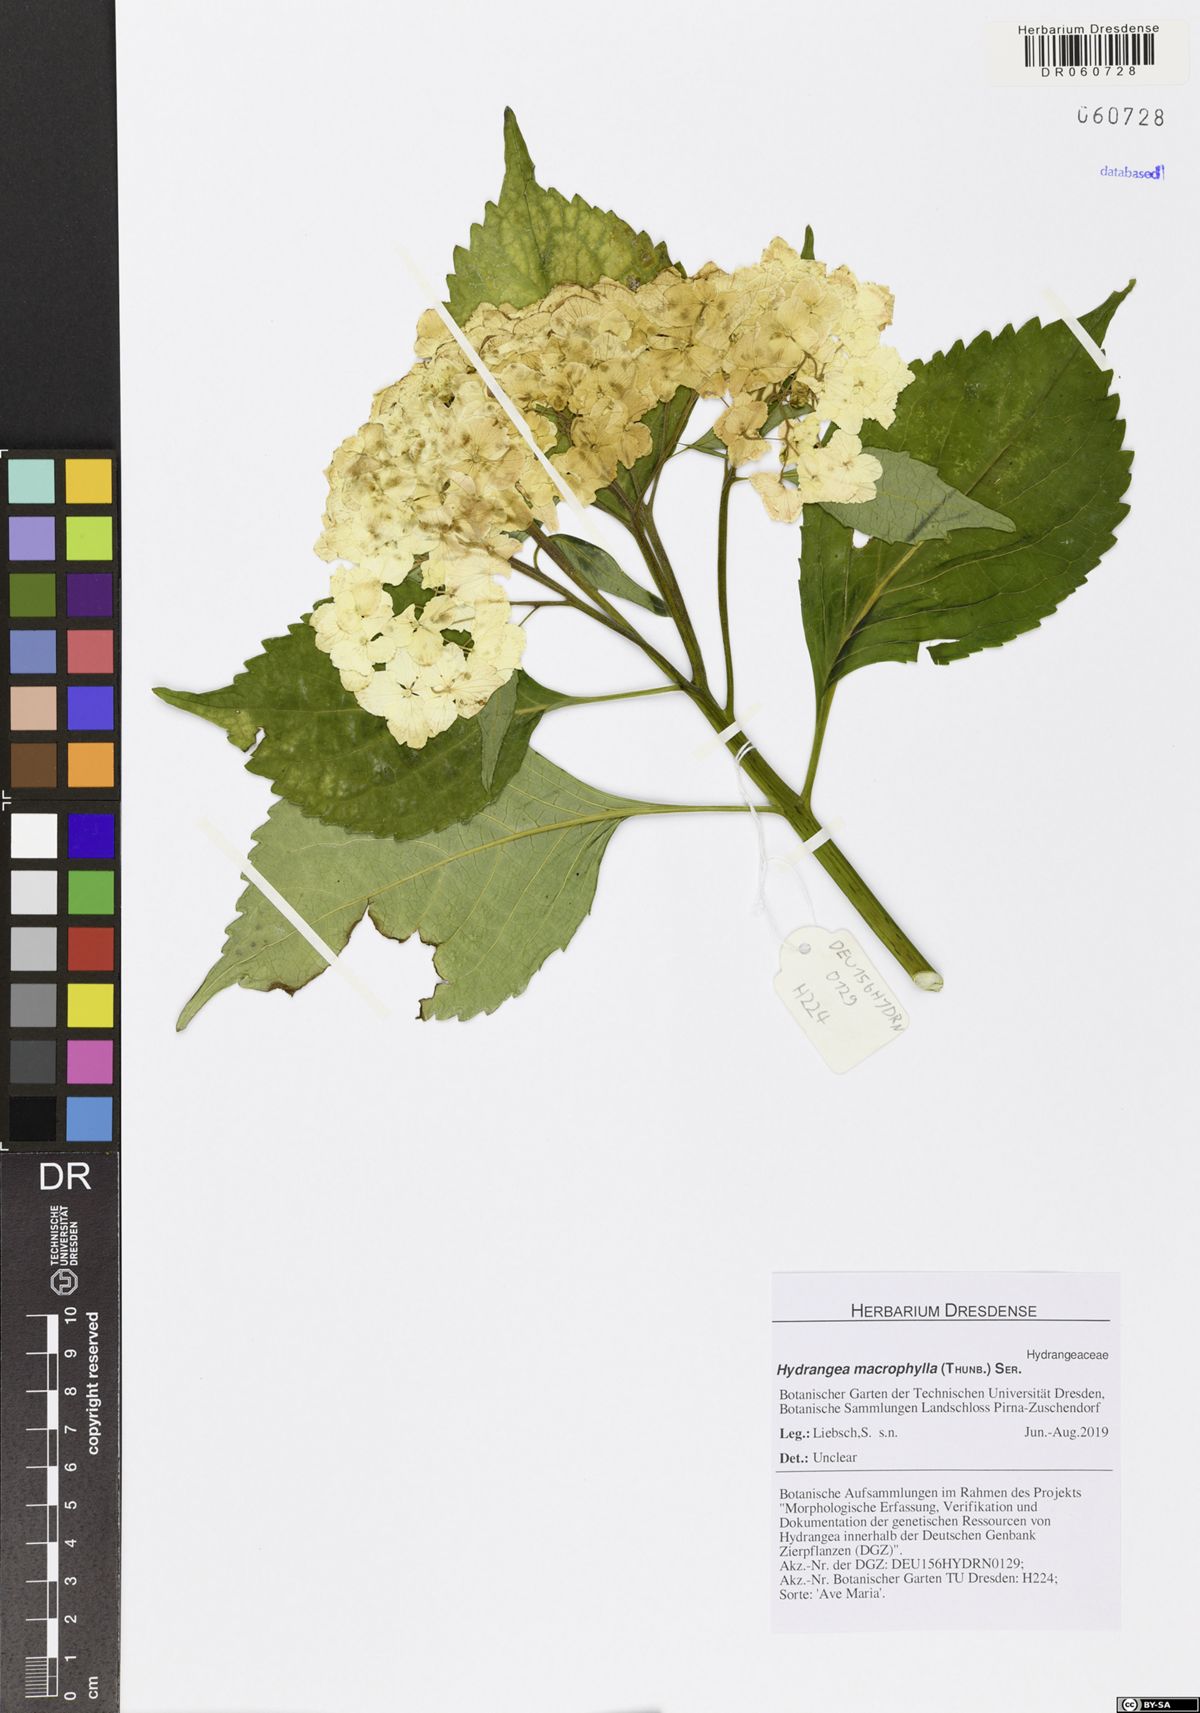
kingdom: Plantae
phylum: Tracheophyta
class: Magnoliopsida
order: Cornales
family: Hydrangeaceae
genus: Hydrangea
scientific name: Hydrangea macrophylla
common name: Hydrangea
